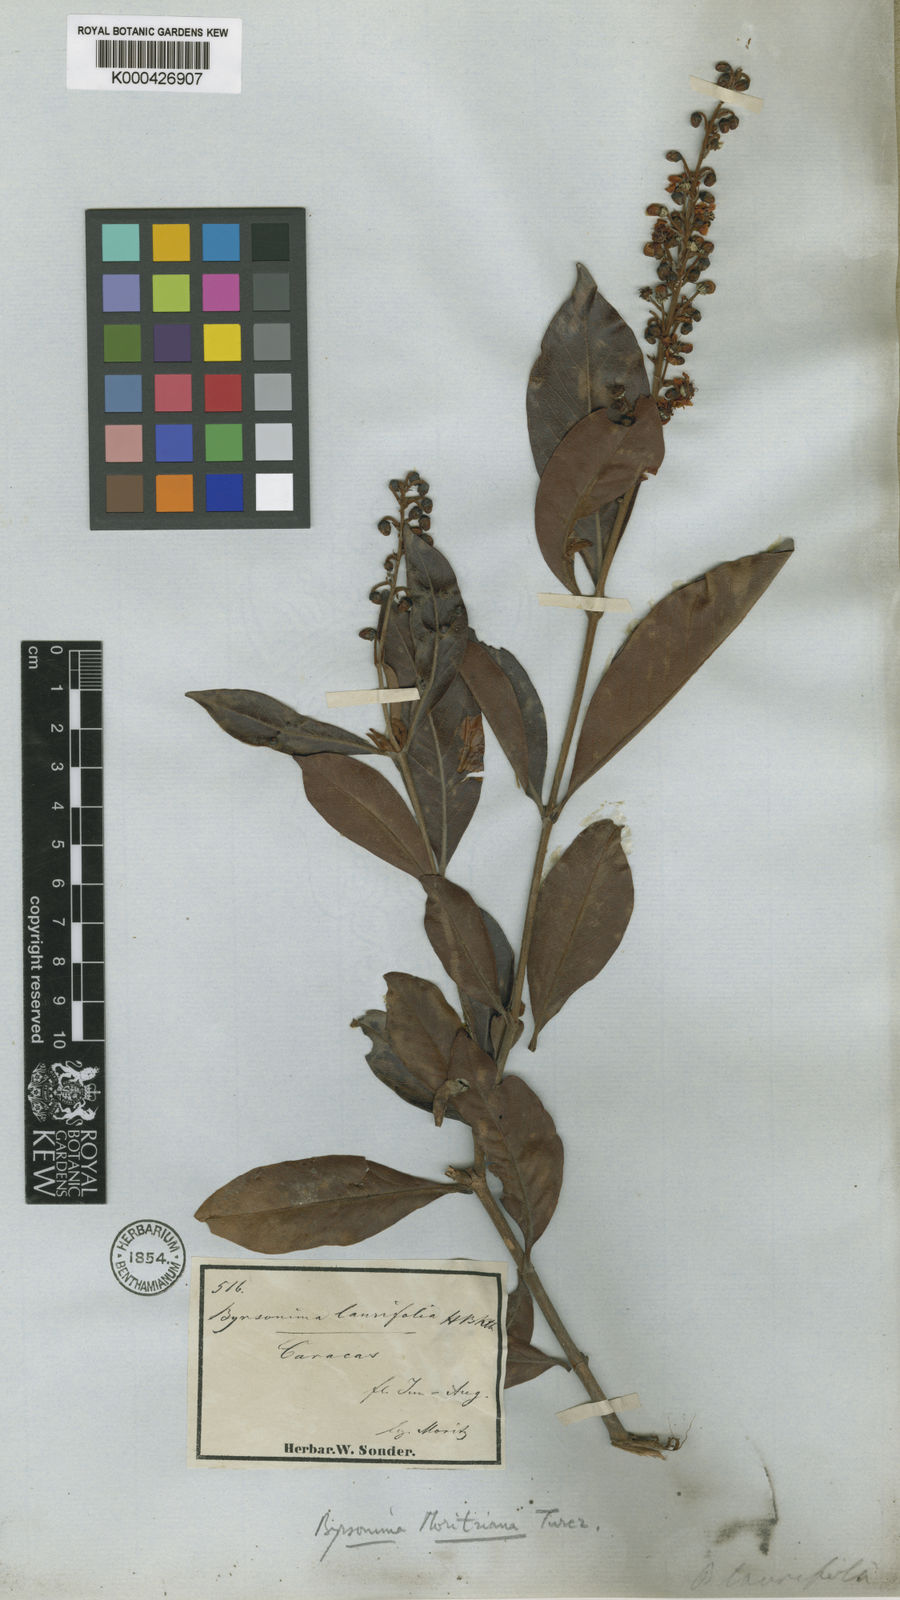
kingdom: Plantae
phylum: Tracheophyta
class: Magnoliopsida
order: Malpighiales
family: Malpighiaceae
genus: Byrsonima
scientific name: Byrsonima crassifolia
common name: Golden spoon
